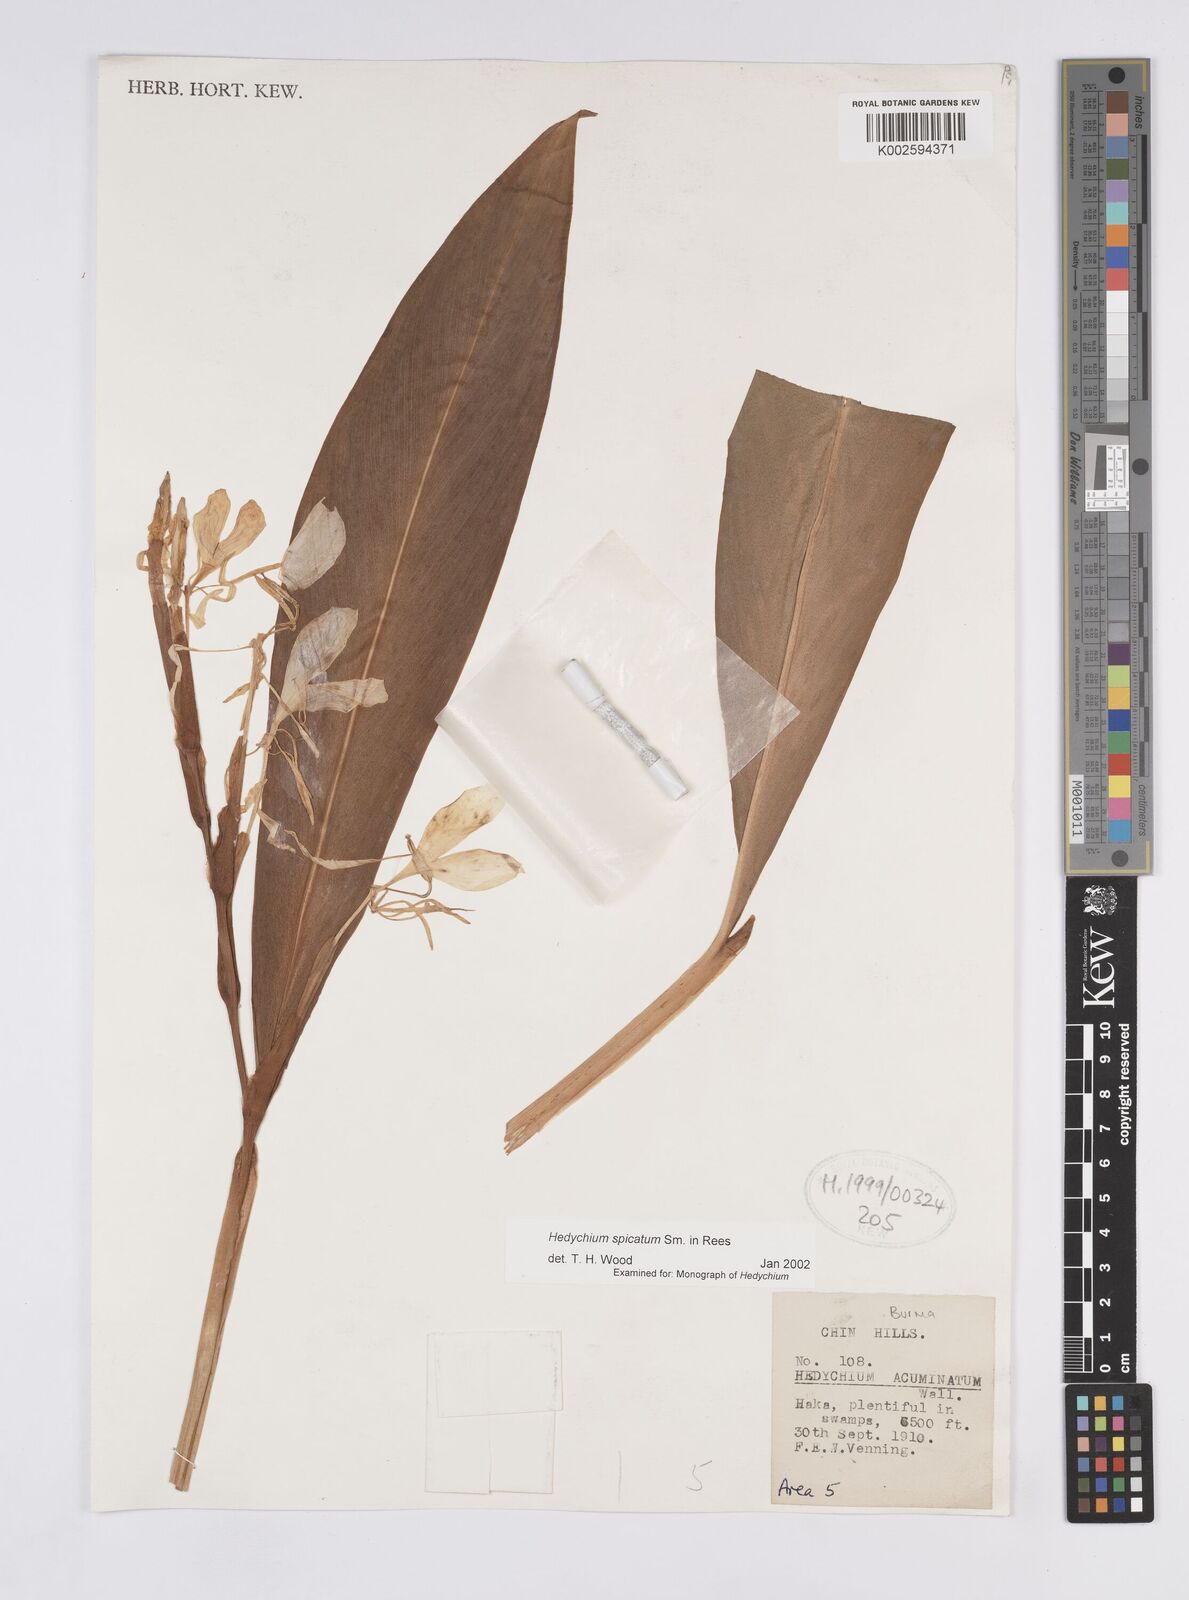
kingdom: Plantae
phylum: Tracheophyta
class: Liliopsida
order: Zingiberales
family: Zingiberaceae
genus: Hedychium
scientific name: Hedychium spicatum
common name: Spiked ginger-lily
